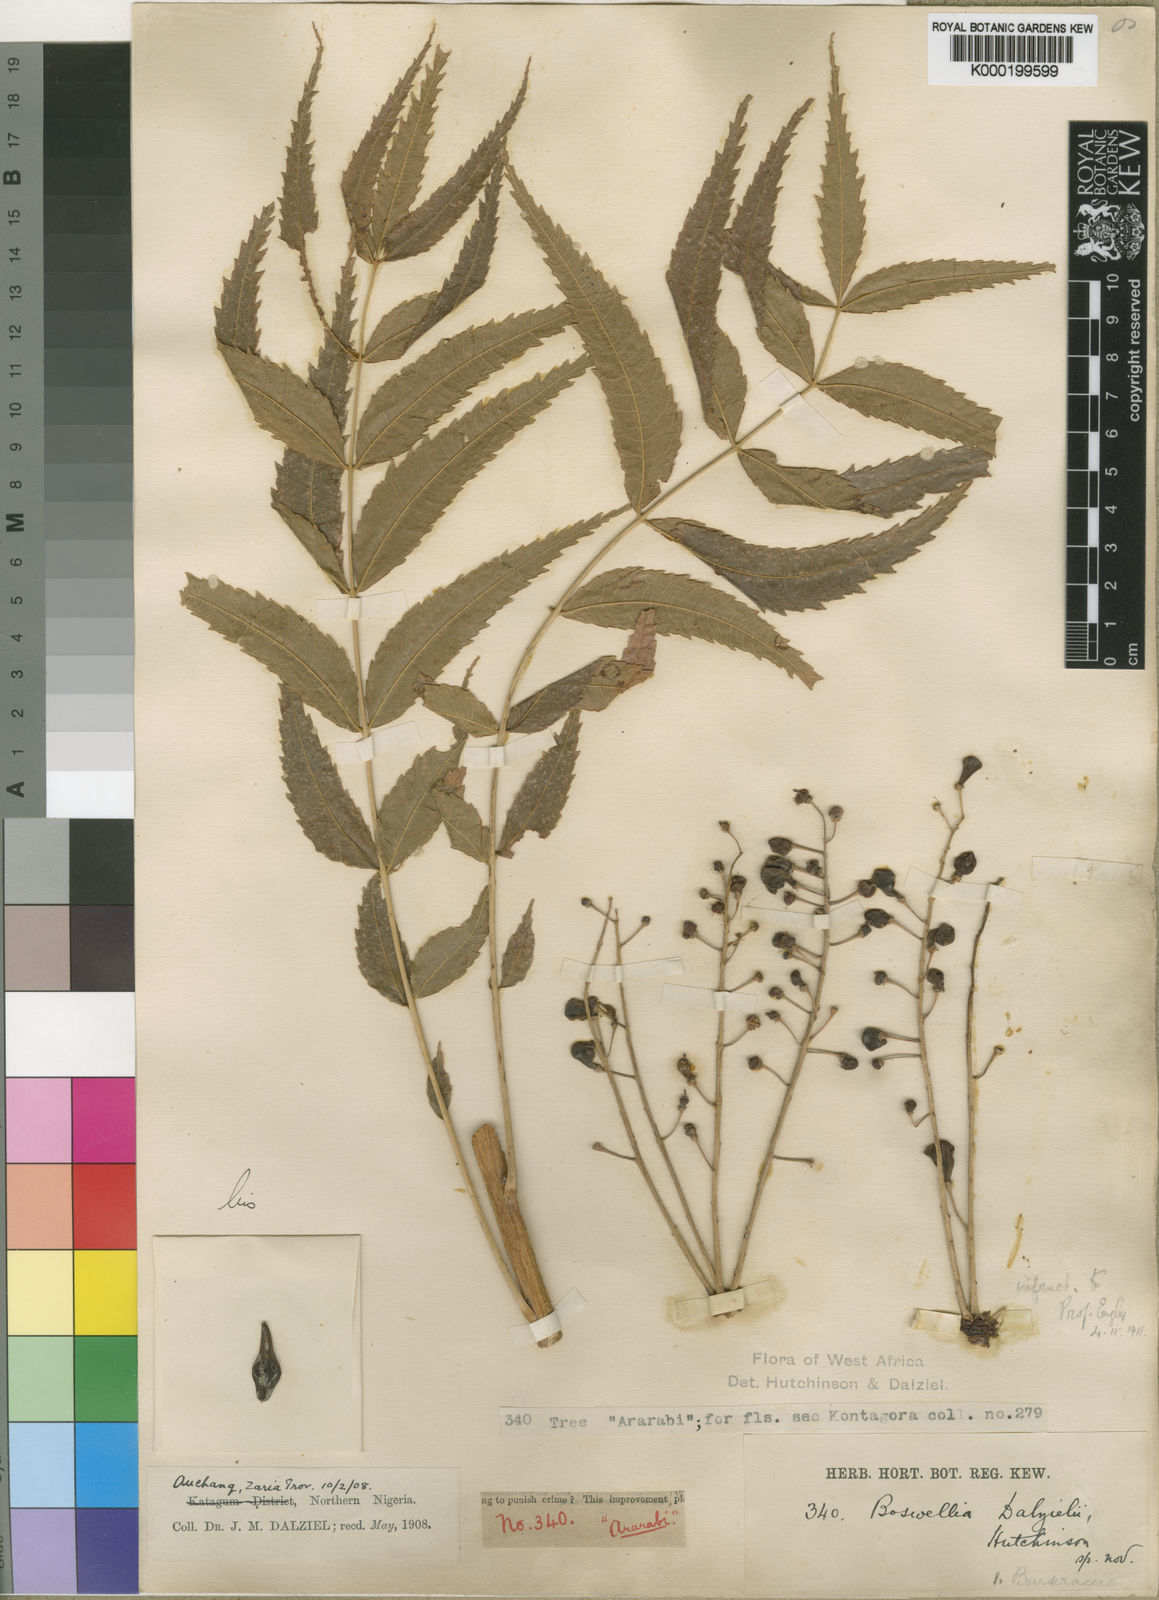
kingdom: Plantae
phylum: Tracheophyta
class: Magnoliopsida
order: Sapindales
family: Burseraceae
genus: Boswellia
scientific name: Boswellia dalzielii
